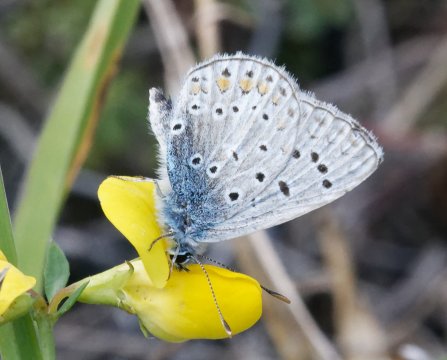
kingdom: Animalia
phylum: Arthropoda
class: Insecta
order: Lepidoptera
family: Lycaenidae
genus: Polyommatus
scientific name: Polyommatus icarus
